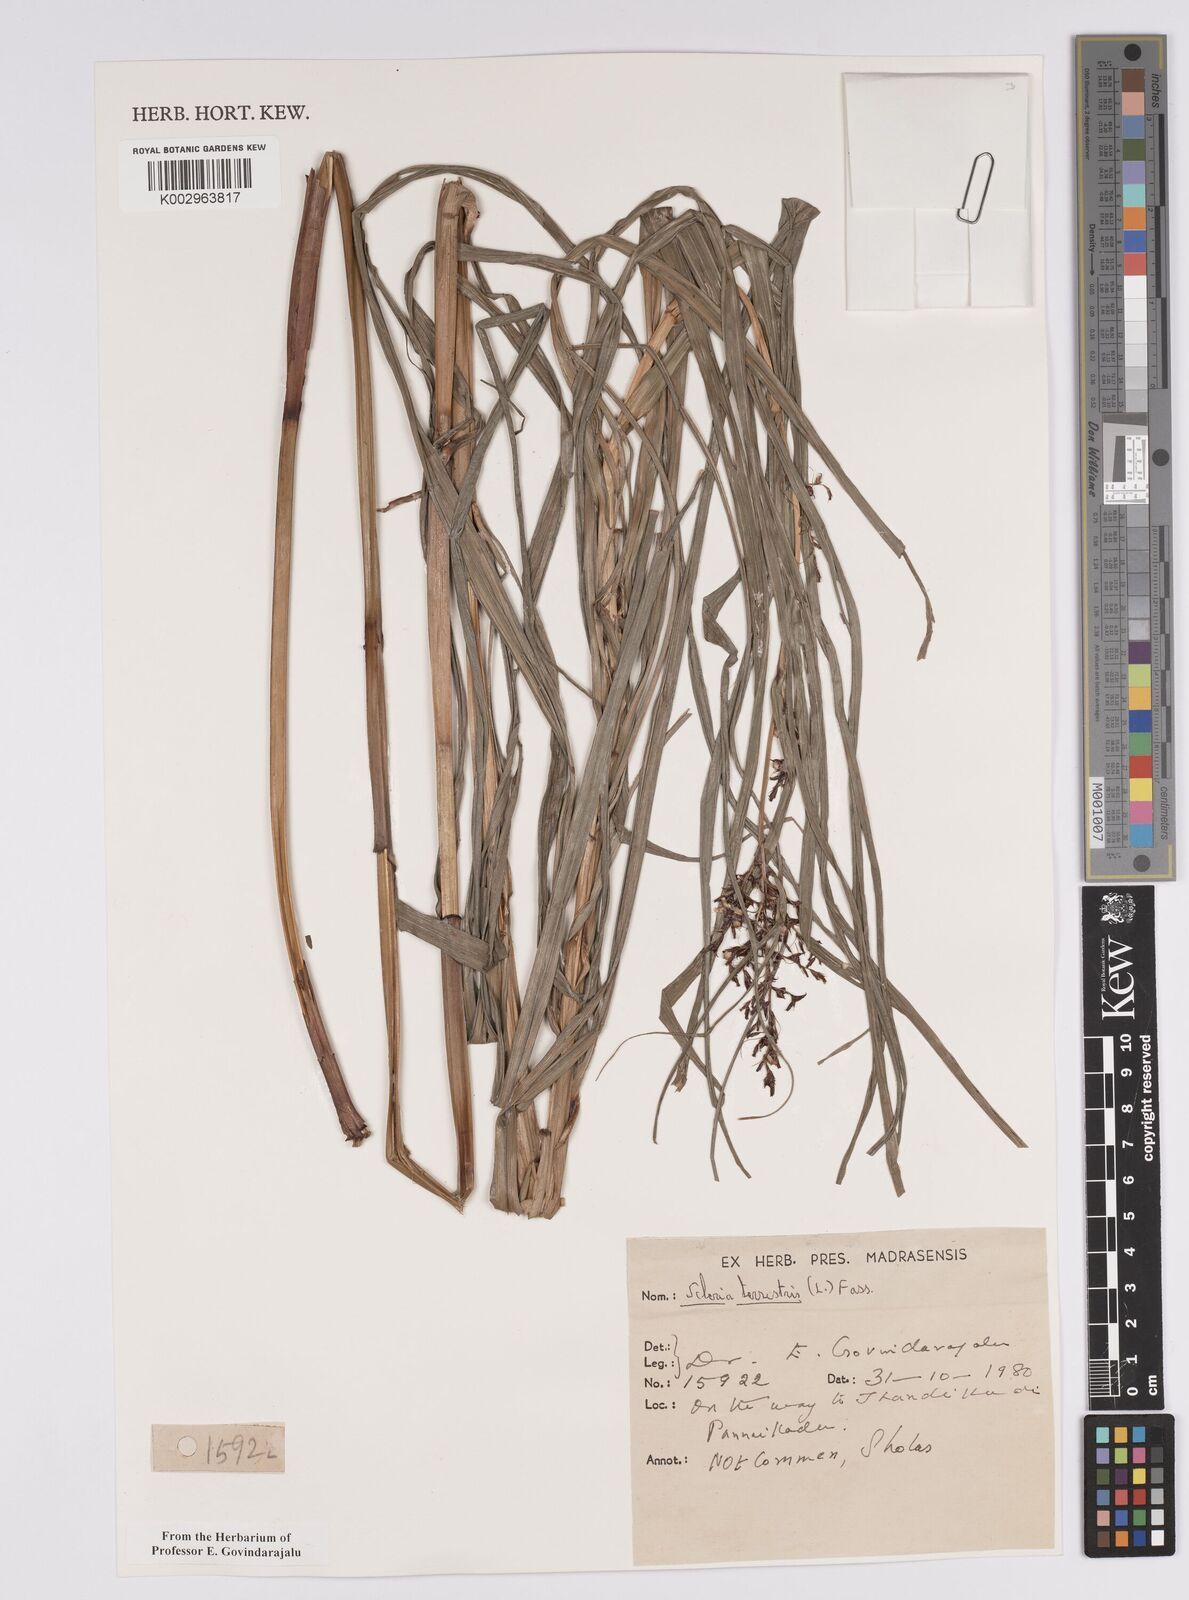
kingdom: Plantae
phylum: Tracheophyta
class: Liliopsida
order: Poales
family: Cyperaceae
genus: Scleria
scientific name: Scleria terrestris
